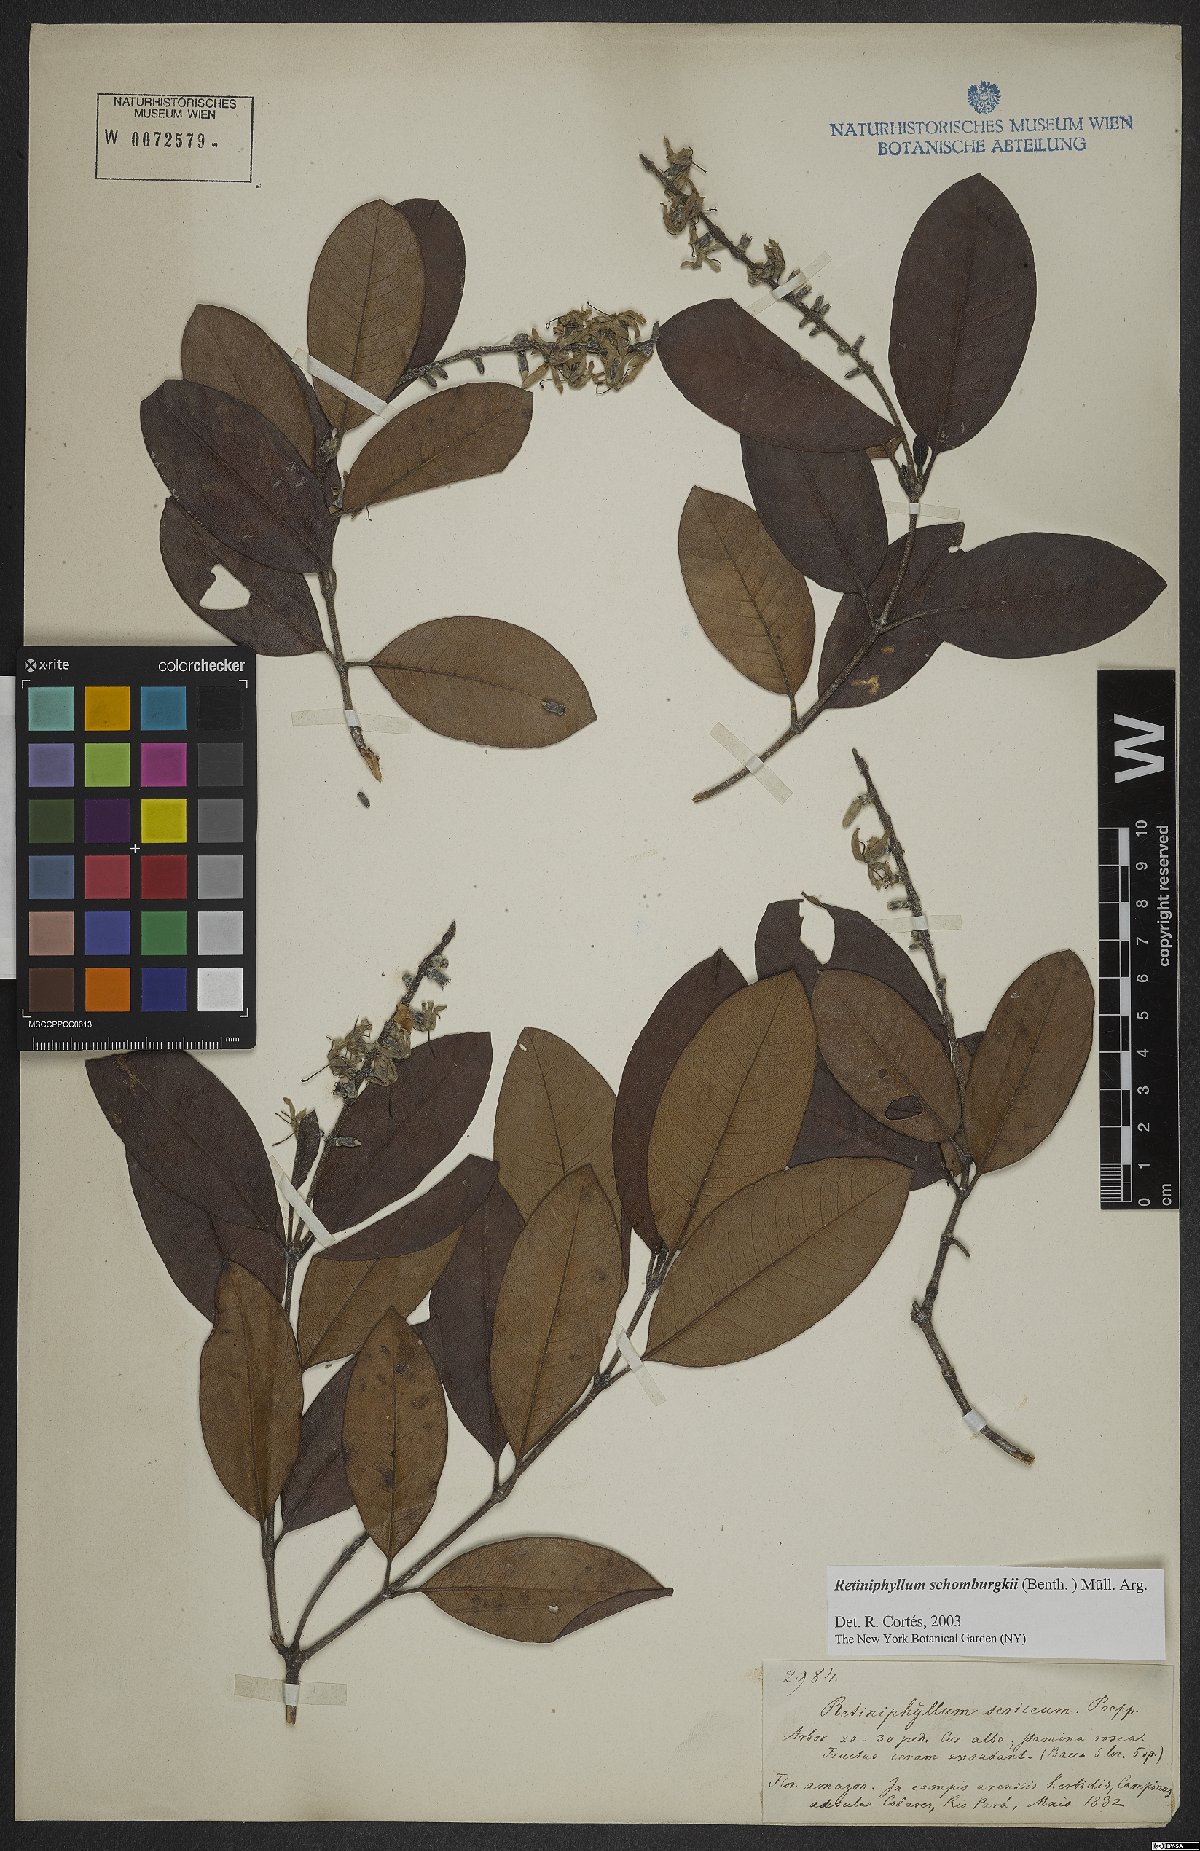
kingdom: Plantae
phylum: Tracheophyta
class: Magnoliopsida
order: Gentianales
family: Rubiaceae
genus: Retiniphyllum
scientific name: Retiniphyllum schomburgkii
